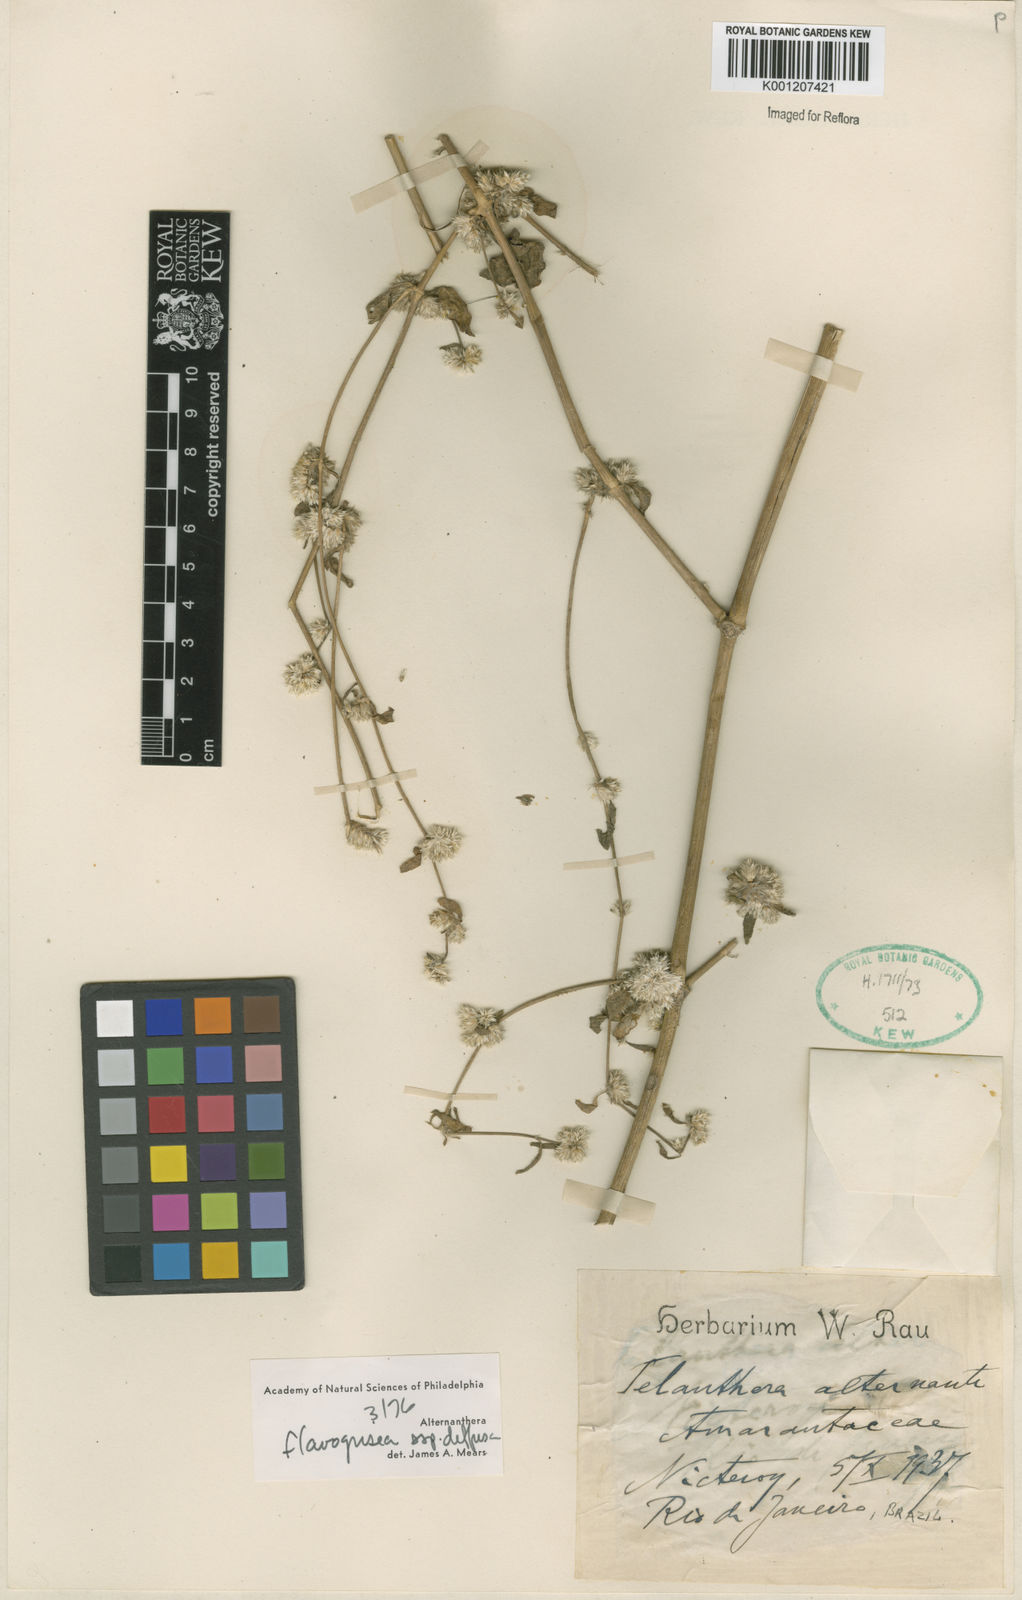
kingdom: Plantae
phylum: Tracheophyta
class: Magnoliopsida
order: Caryophyllales
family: Amaranthaceae
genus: Alternanthera
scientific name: Alternanthera halimifolia
